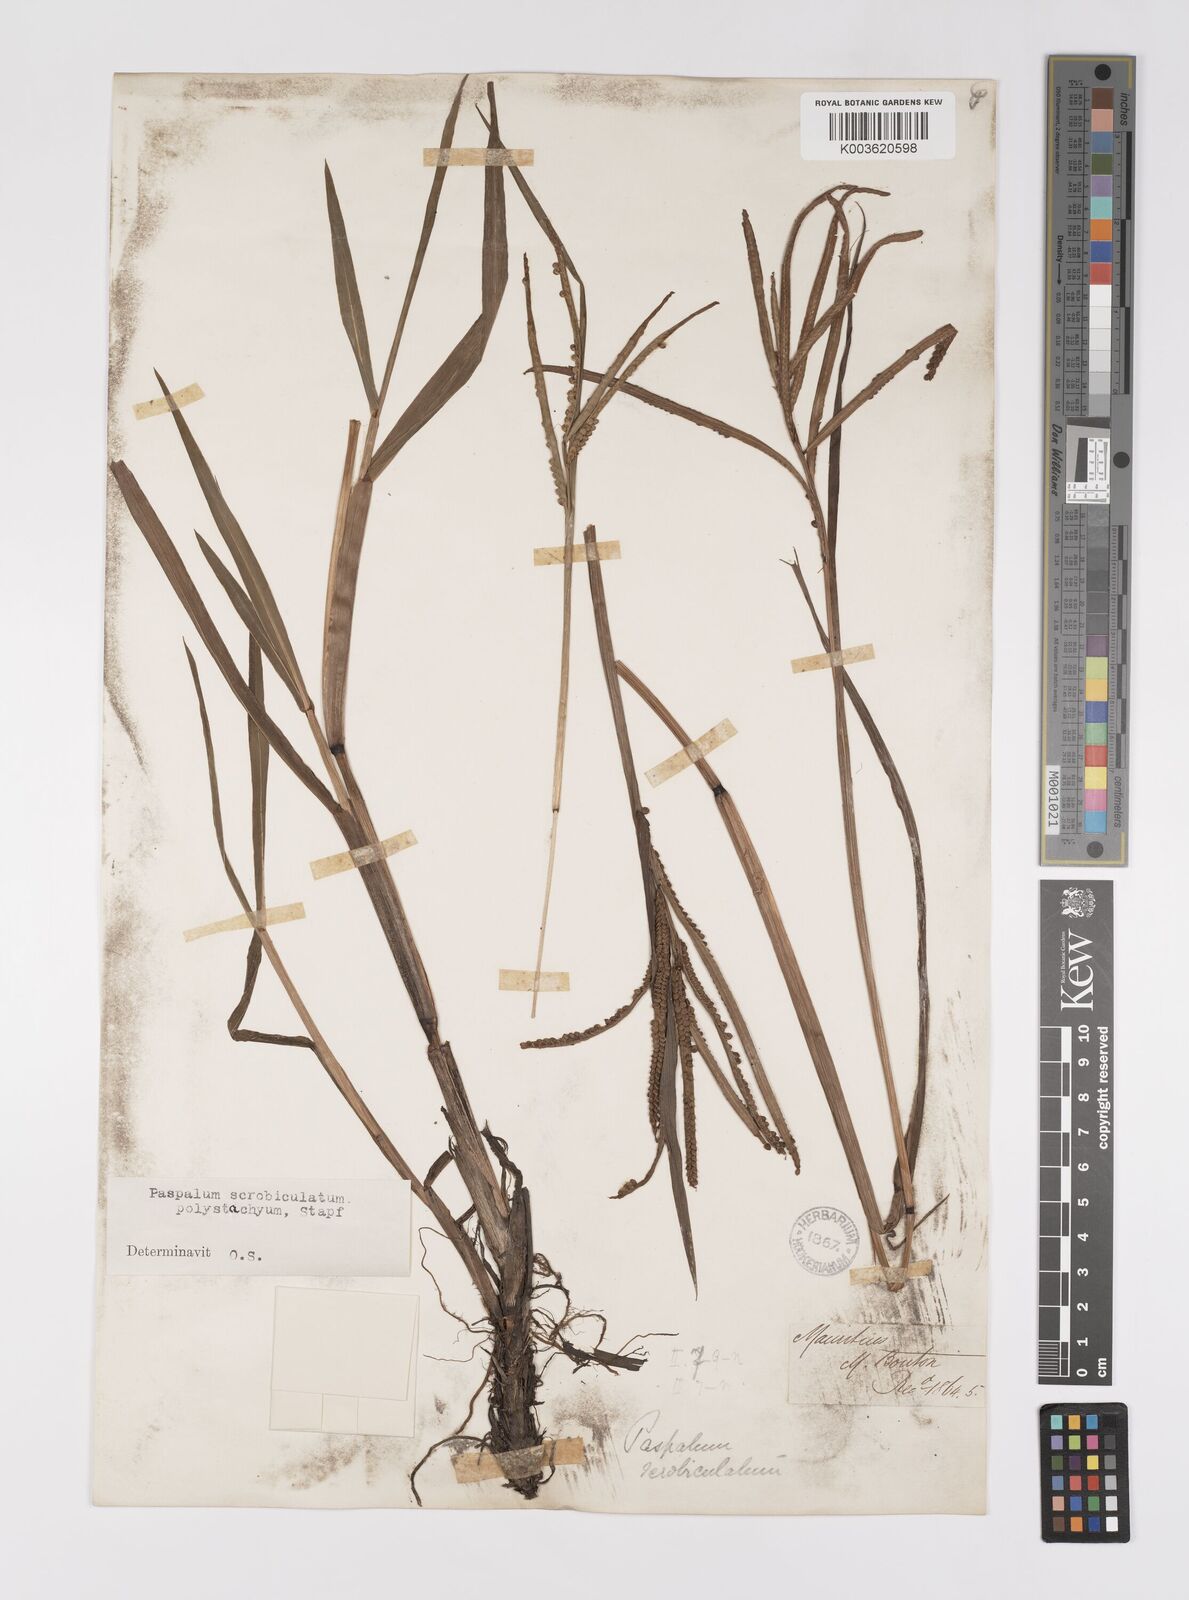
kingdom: Plantae
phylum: Tracheophyta
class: Liliopsida
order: Poales
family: Poaceae
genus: Paspalum
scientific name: Paspalum scrobiculatum
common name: Kodo millet
